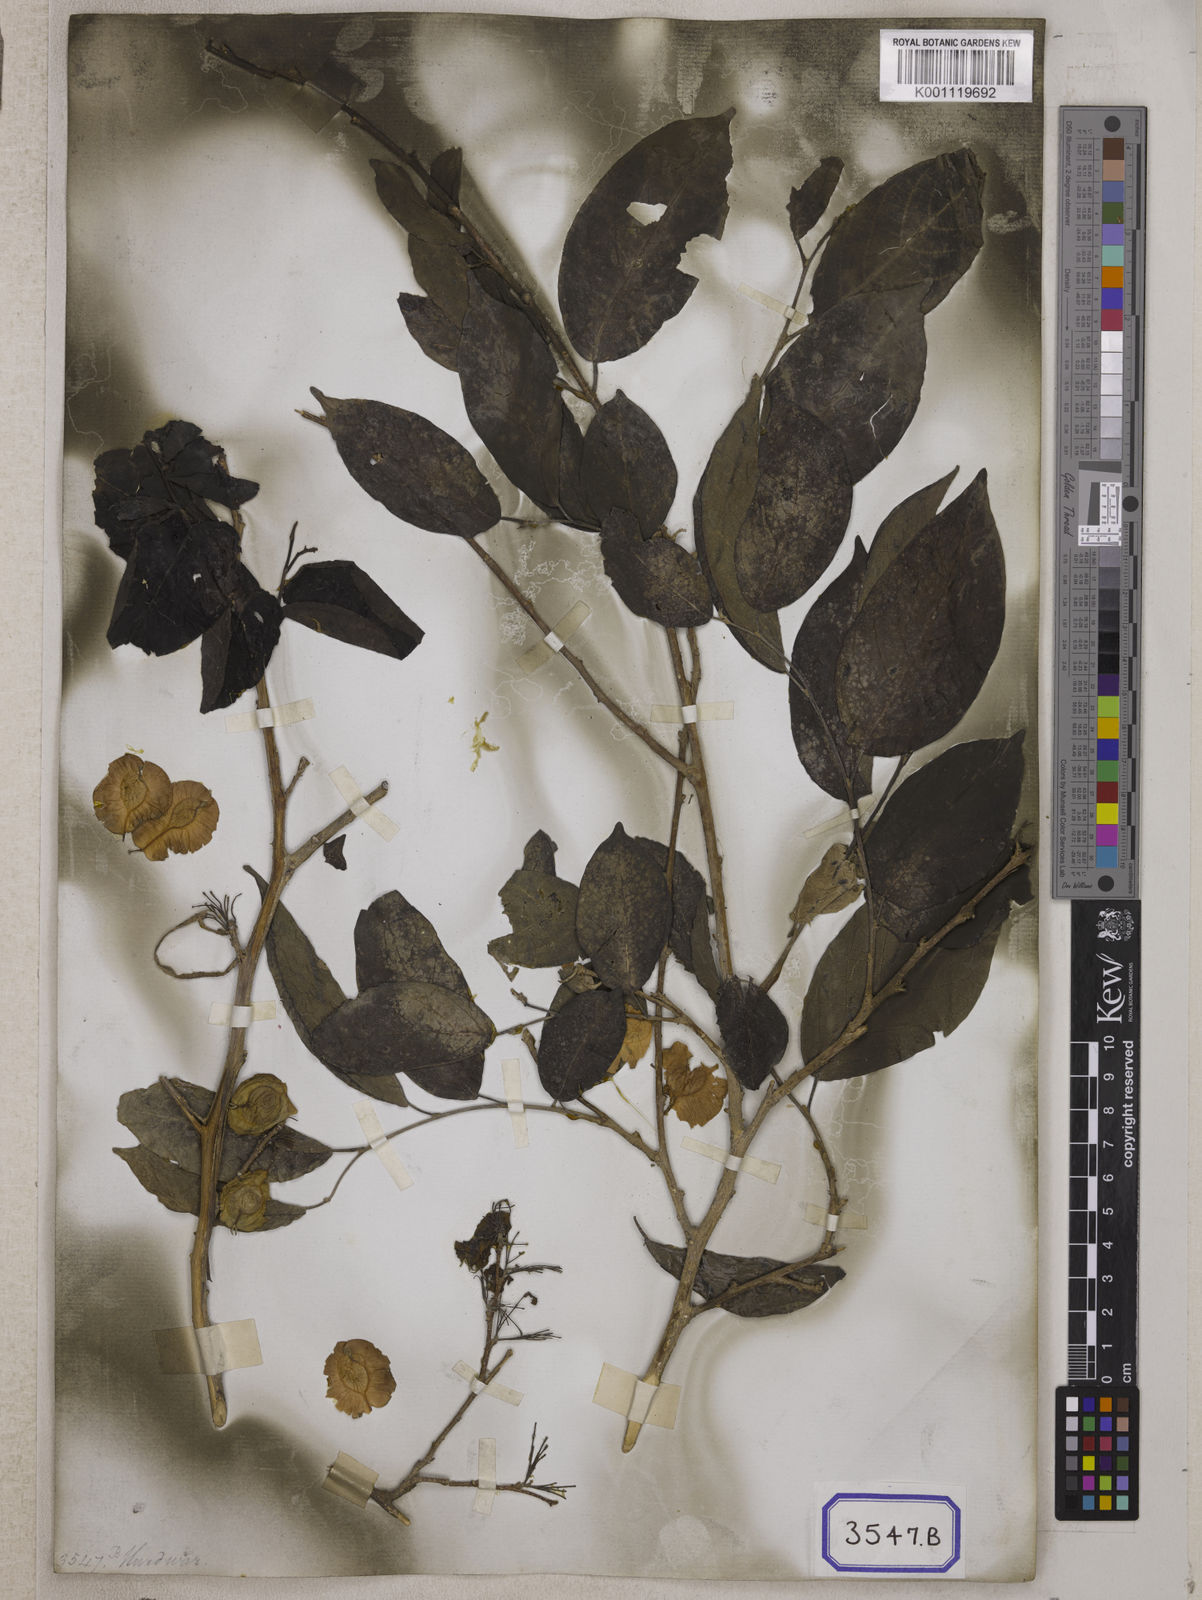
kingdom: Plantae
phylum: Tracheophyta
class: Magnoliopsida
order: Rosales
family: Ulmaceae
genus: Holoptelea
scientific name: Holoptelea integrifolia
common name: Indian-elm
